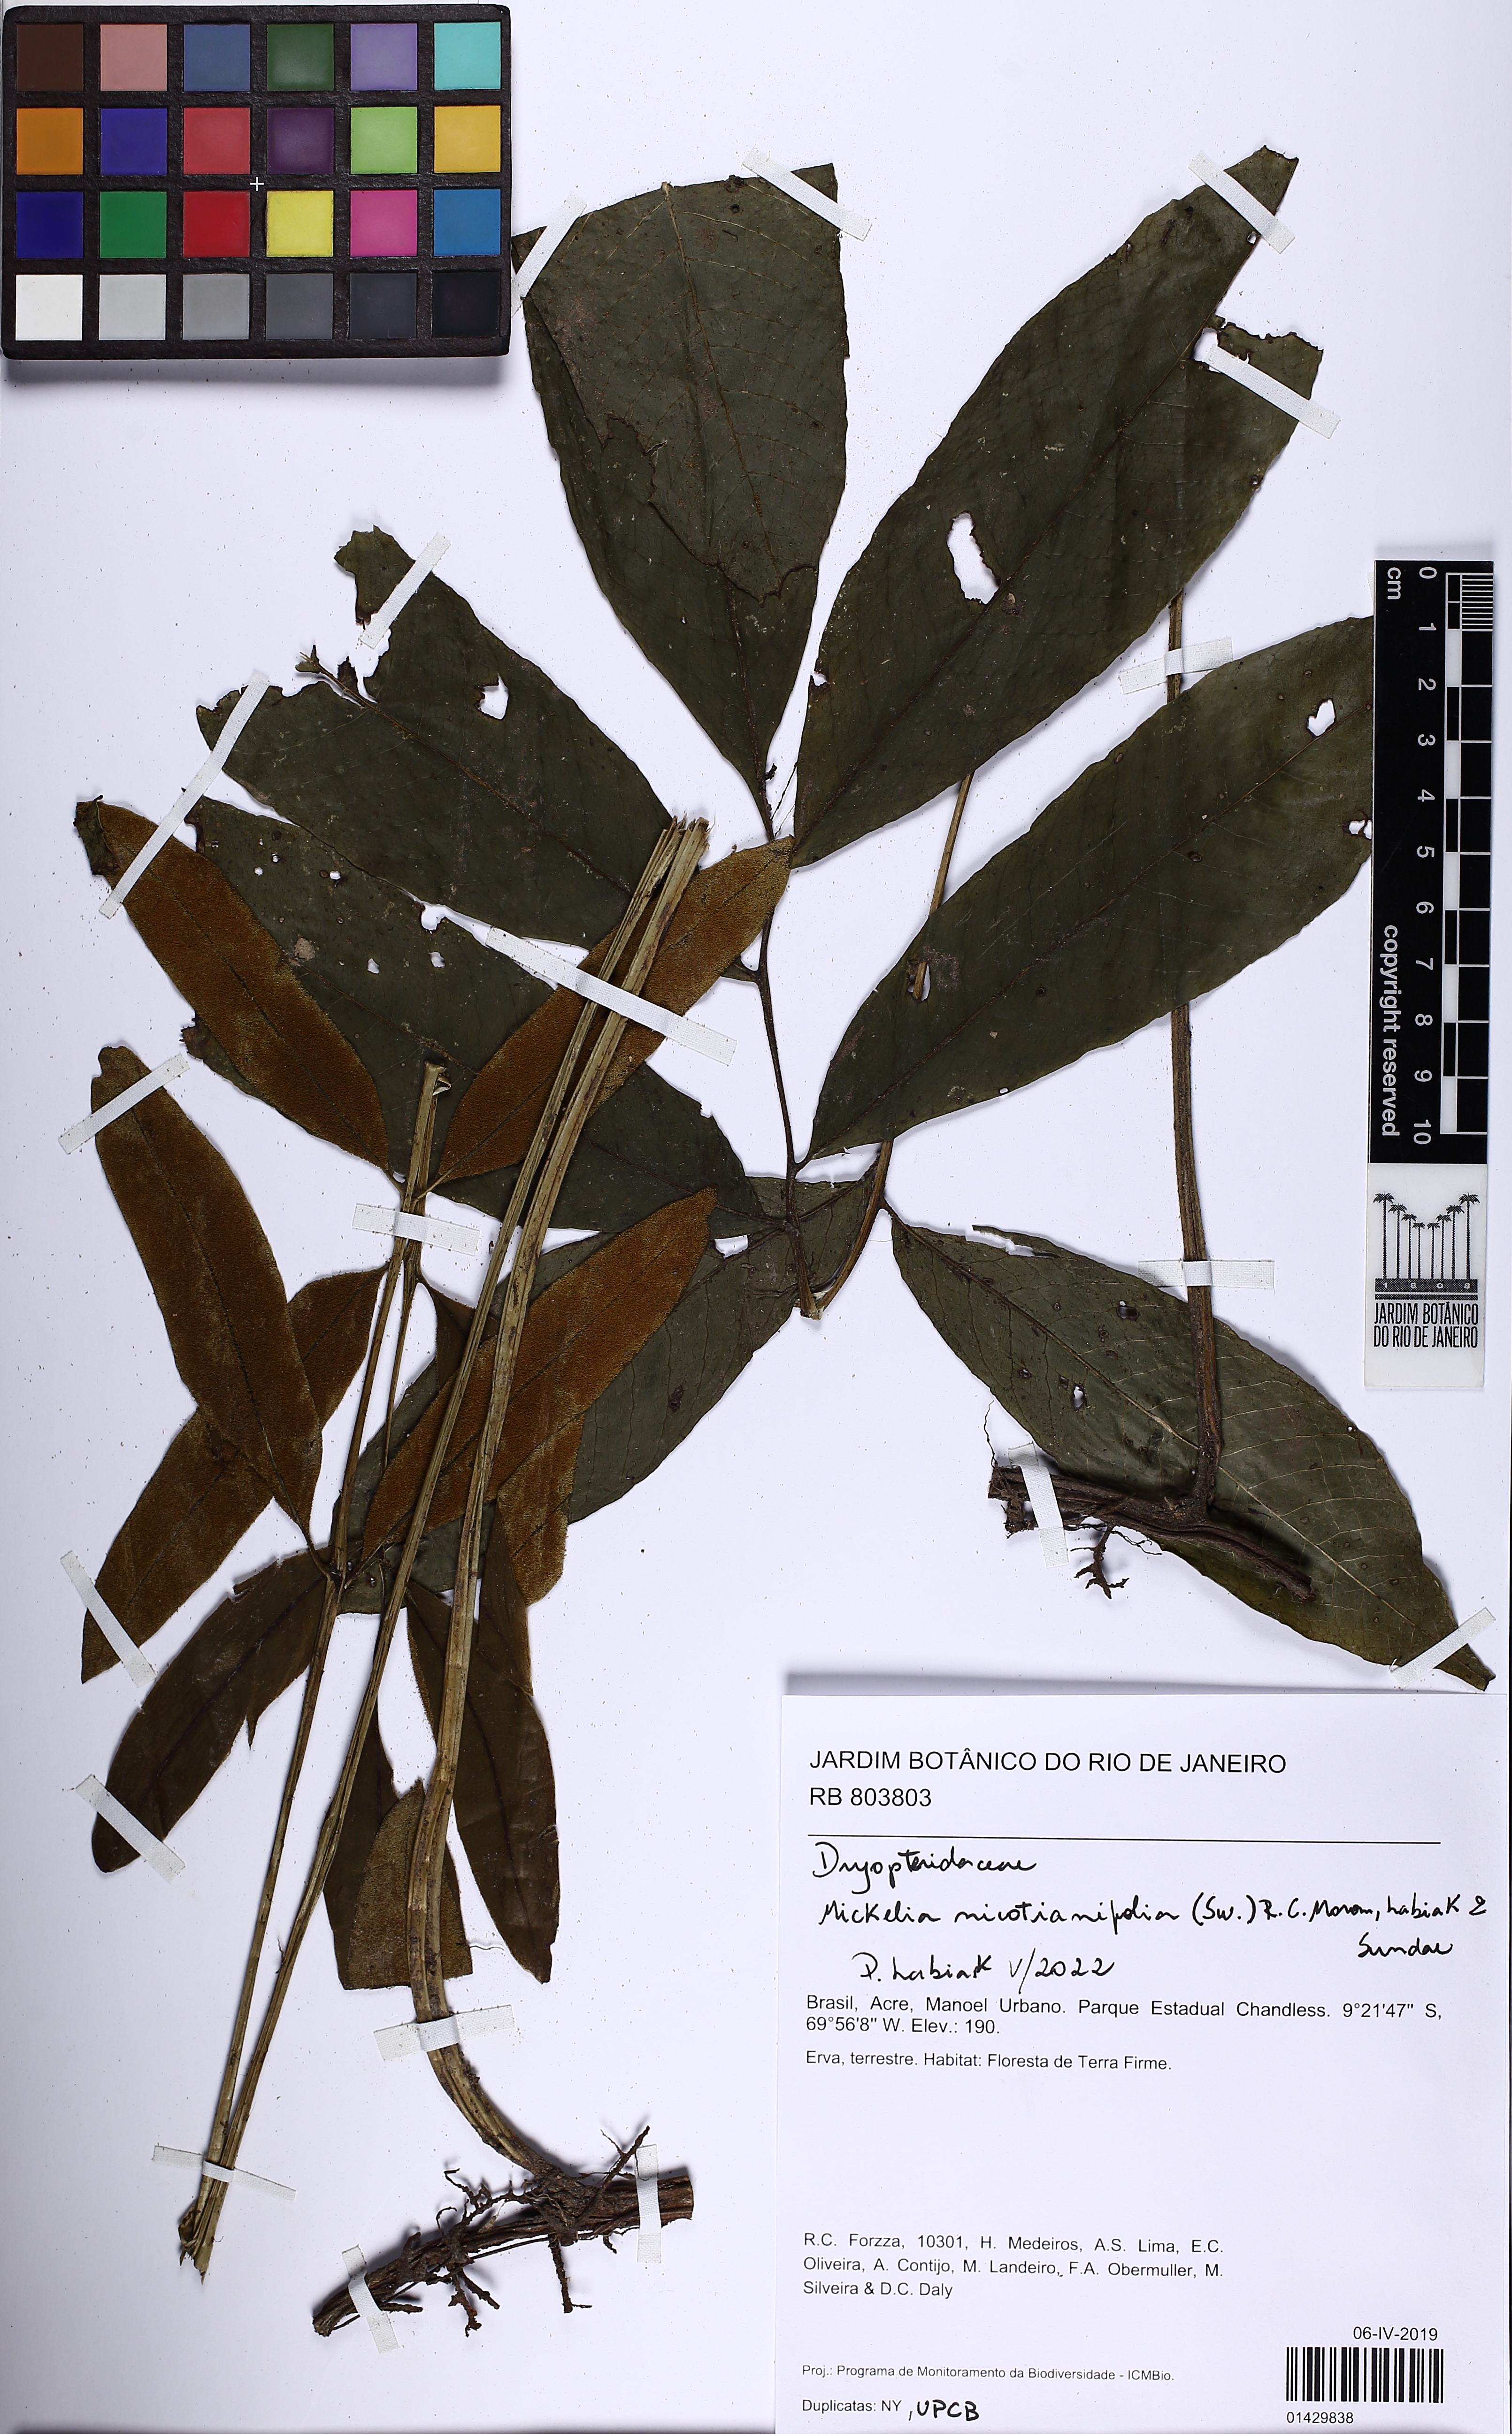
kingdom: Plantae
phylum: Tracheophyta
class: Polypodiopsida
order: Polypodiales
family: Dryopteridaceae
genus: Mickelia
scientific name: Mickelia nicotianifolia
